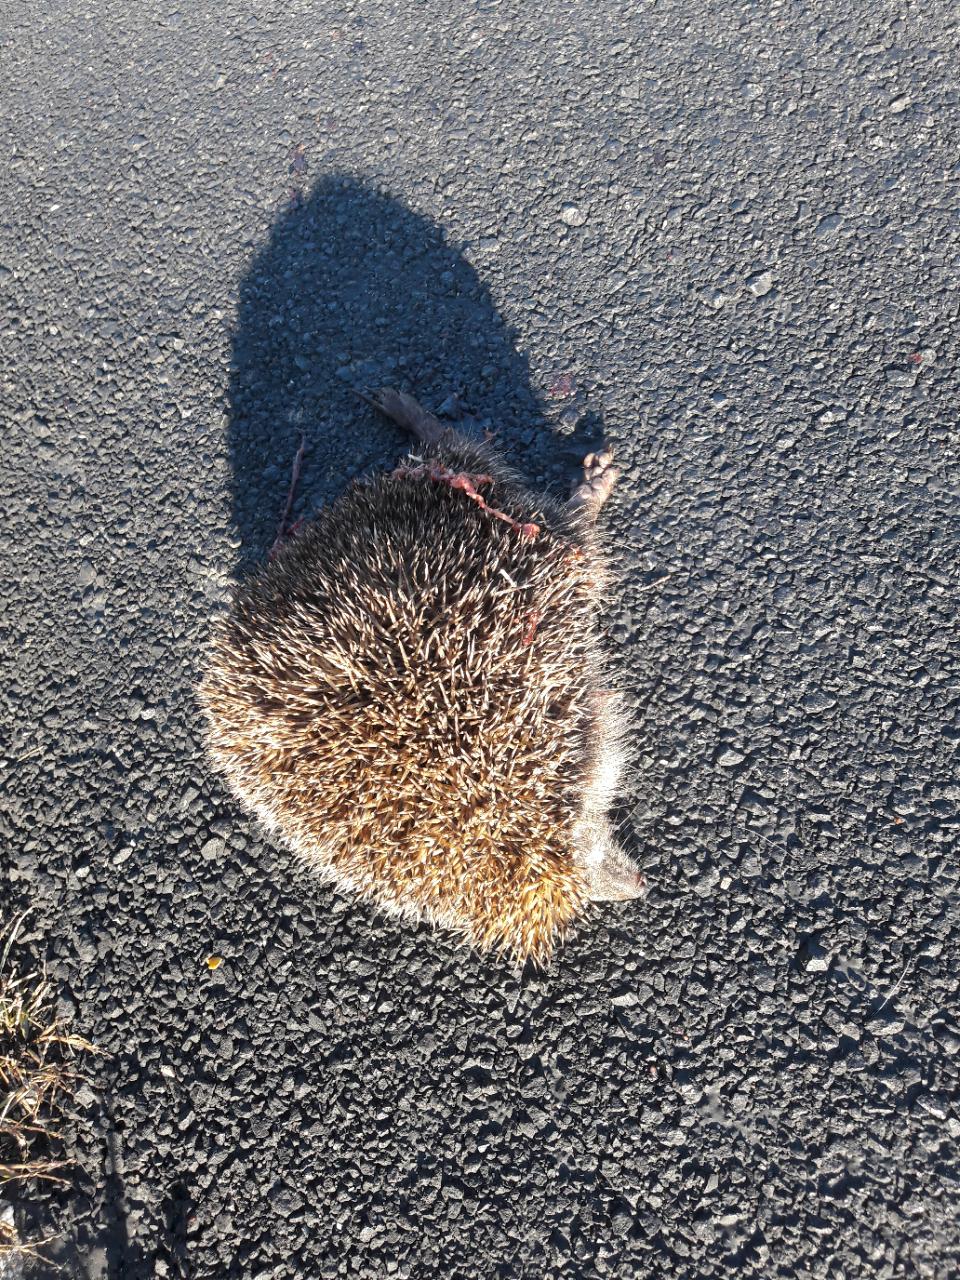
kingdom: Animalia
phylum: Chordata
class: Mammalia
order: Erinaceomorpha
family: Erinaceidae
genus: Erinaceus
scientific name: Erinaceus
